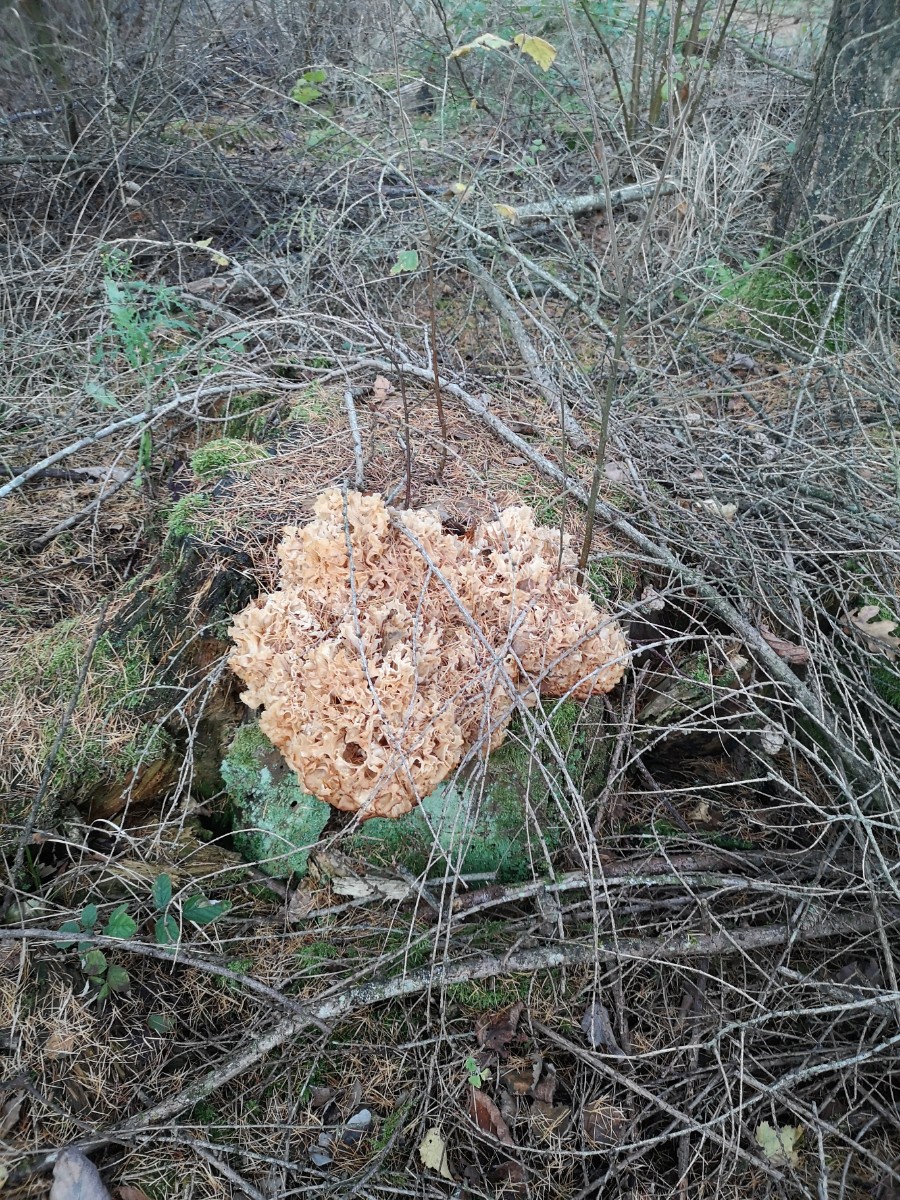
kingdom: Fungi
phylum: Basidiomycota
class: Agaricomycetes
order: Polyporales
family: Sparassidaceae
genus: Sparassis
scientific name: Sparassis crispa
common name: kruset blomkålssvamp
